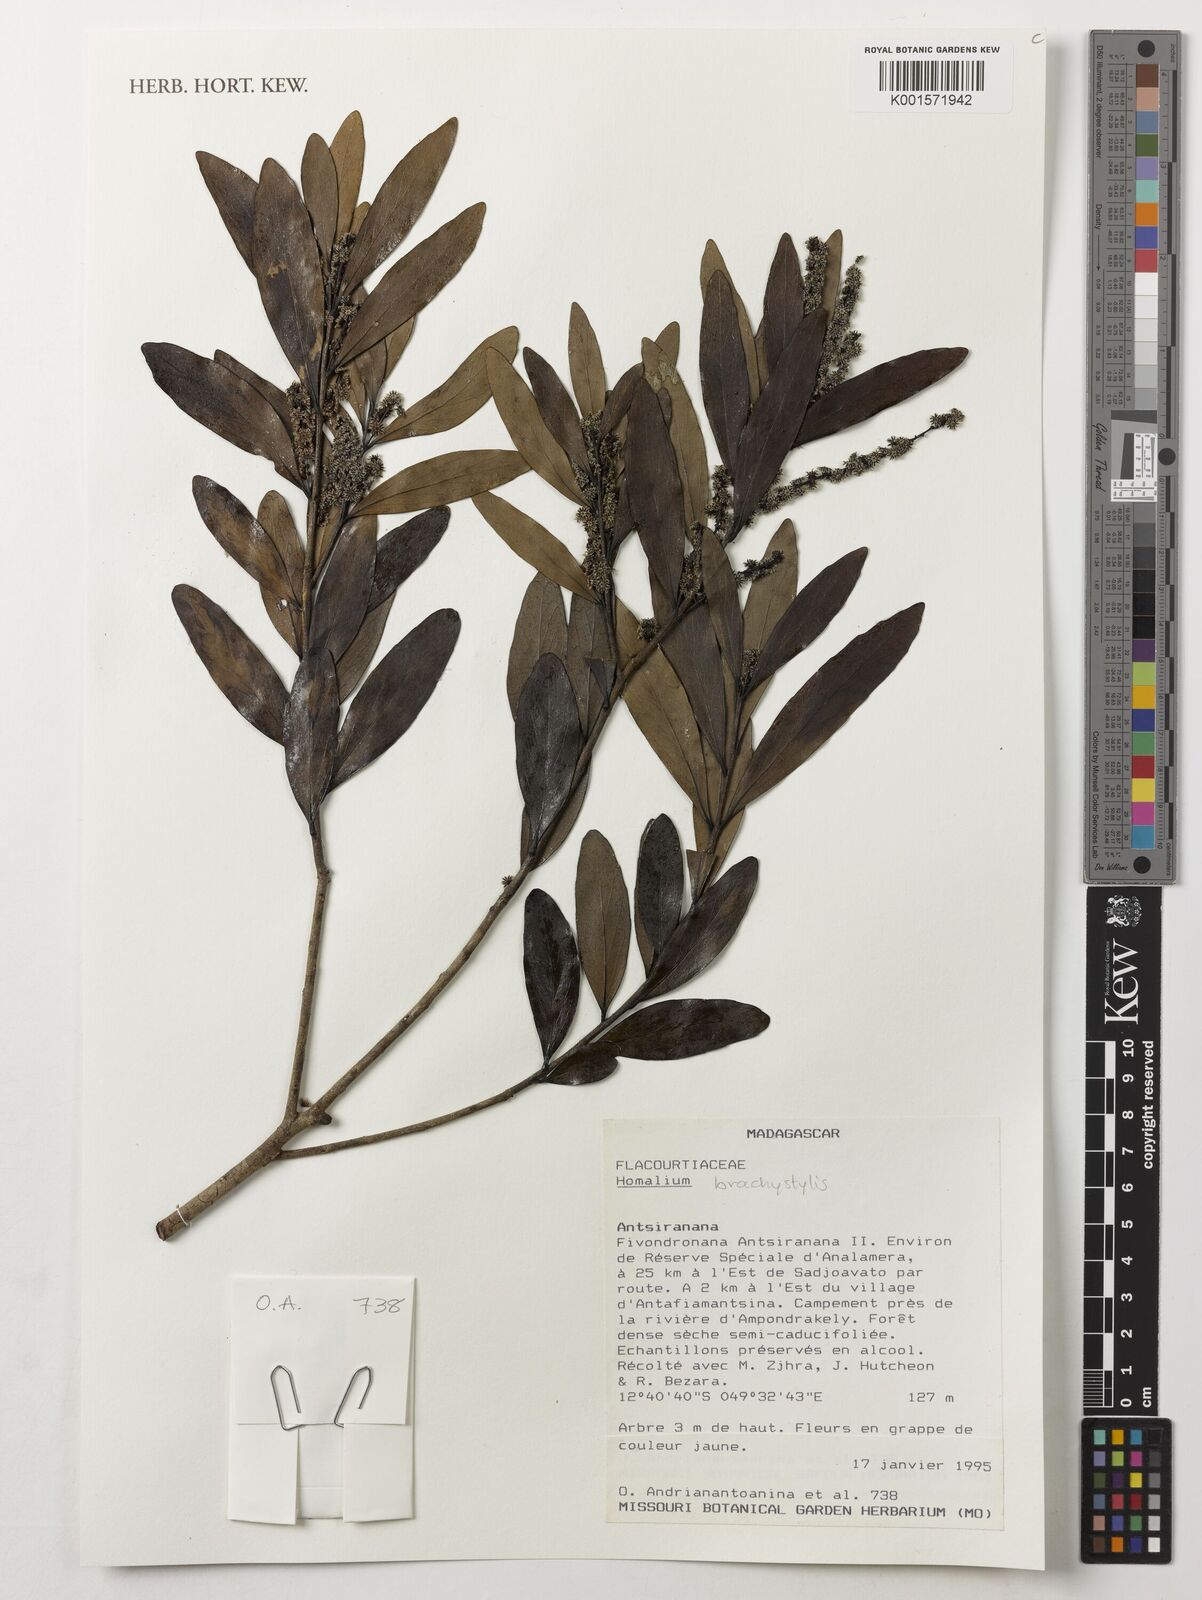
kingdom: Plantae
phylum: Tracheophyta
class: Magnoliopsida
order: Malpighiales
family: Salicaceae
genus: Homalium
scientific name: Homalium brachystylis
